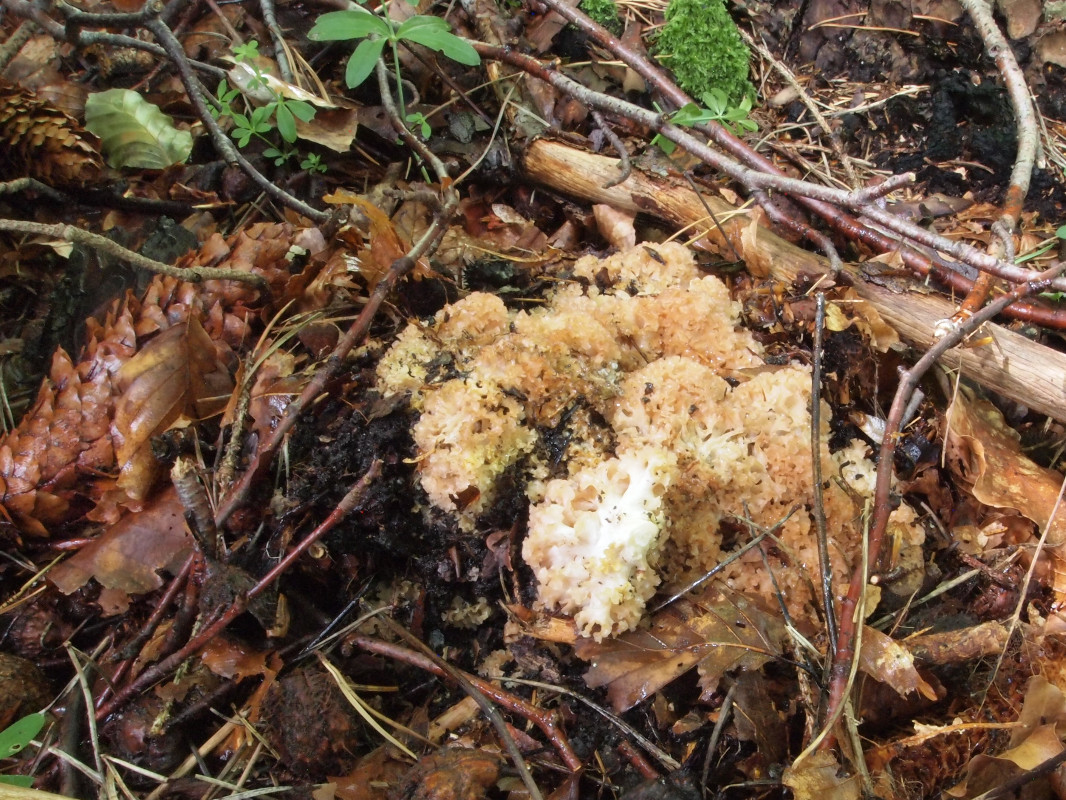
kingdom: Fungi
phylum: Basidiomycota
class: Agaricomycetes
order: Polyporales
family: Sparassidaceae
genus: Sparassis
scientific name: Sparassis crispa
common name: kruset blomkålssvamp
